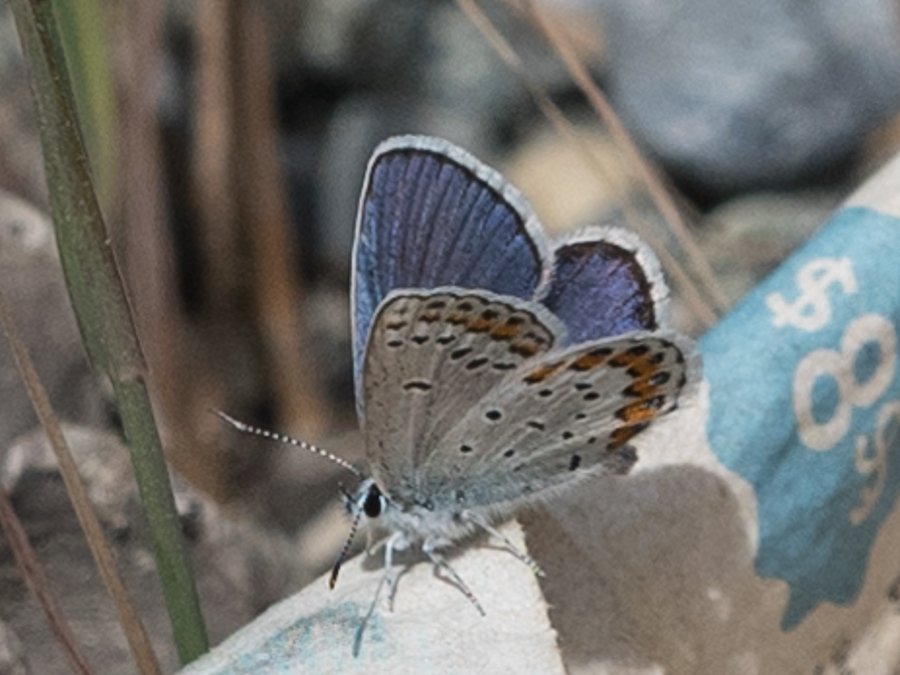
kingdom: Animalia
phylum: Arthropoda
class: Insecta
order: Lepidoptera
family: Lycaenidae
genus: Lycaeides
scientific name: Lycaeides melissa
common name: Melissa Blue
